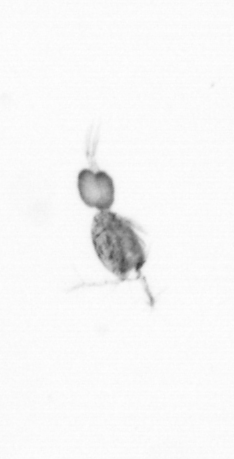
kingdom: Animalia
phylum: Arthropoda
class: Copepoda
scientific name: Copepoda
